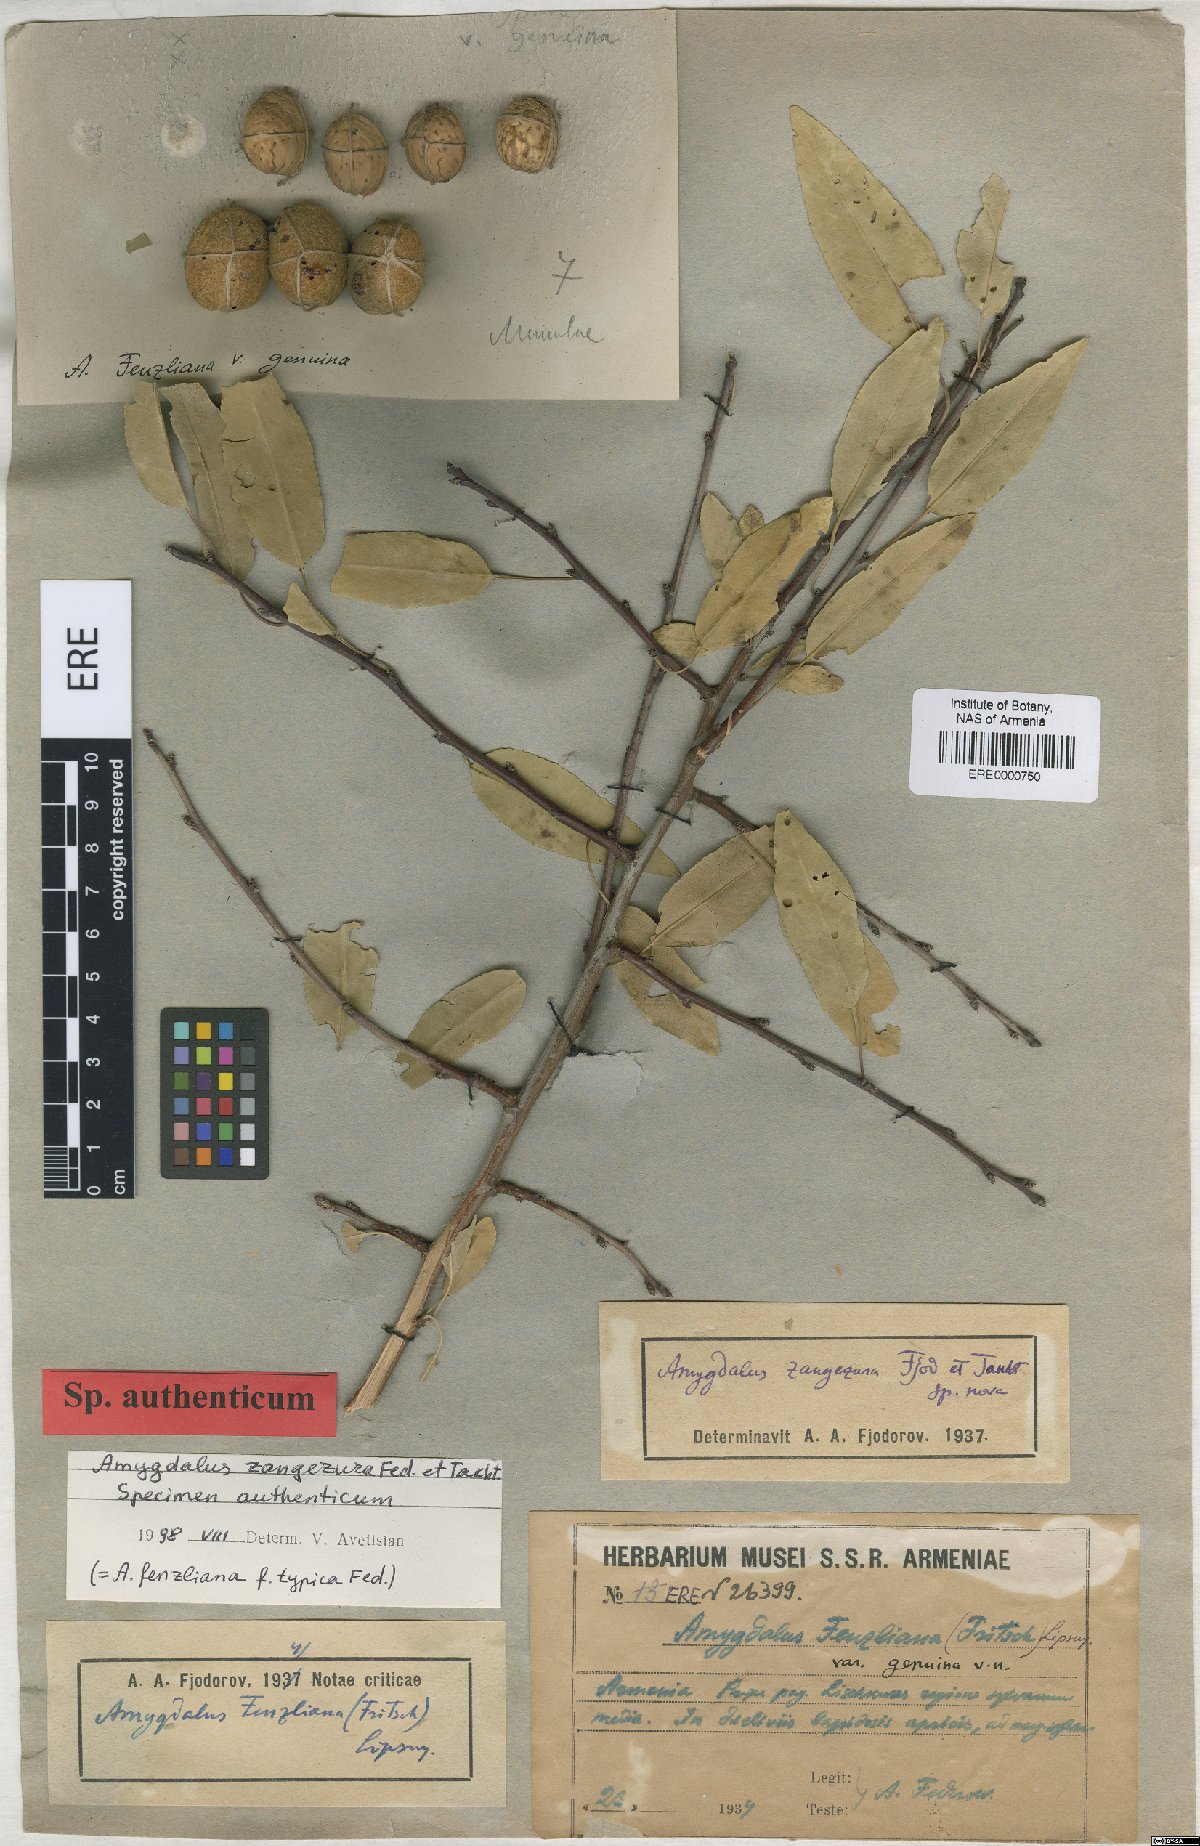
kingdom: Plantae
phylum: Tracheophyta
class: Magnoliopsida
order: Rosales
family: Rosaceae
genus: Prunus
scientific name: Prunus Amygdalus zangezura
